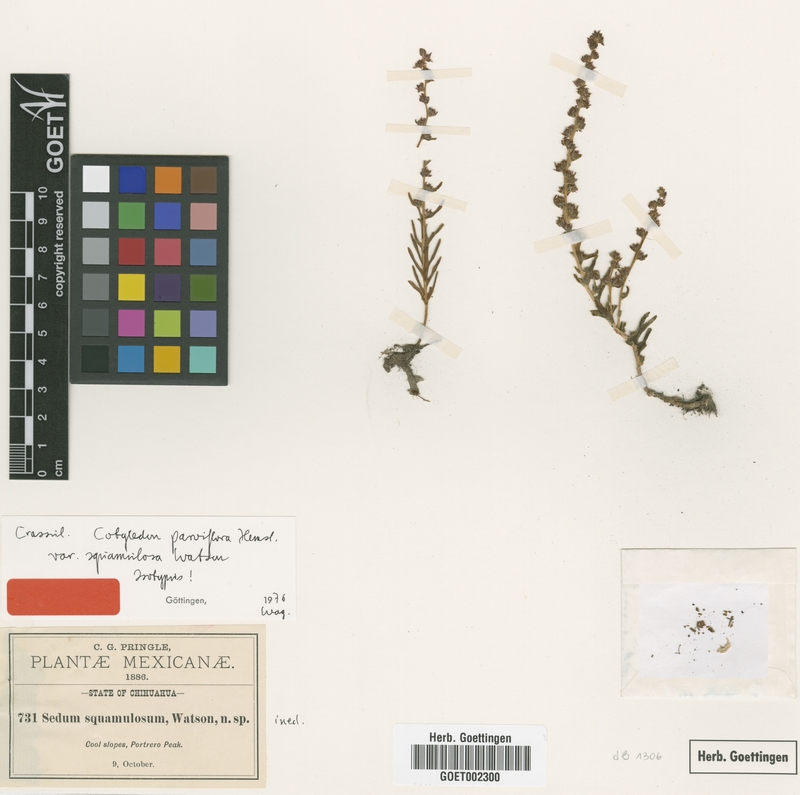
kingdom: Plantae
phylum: Tracheophyta
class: Magnoliopsida
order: Saxifragales
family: Crassulaceae
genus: Villadia
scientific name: Villadia squamulosa
